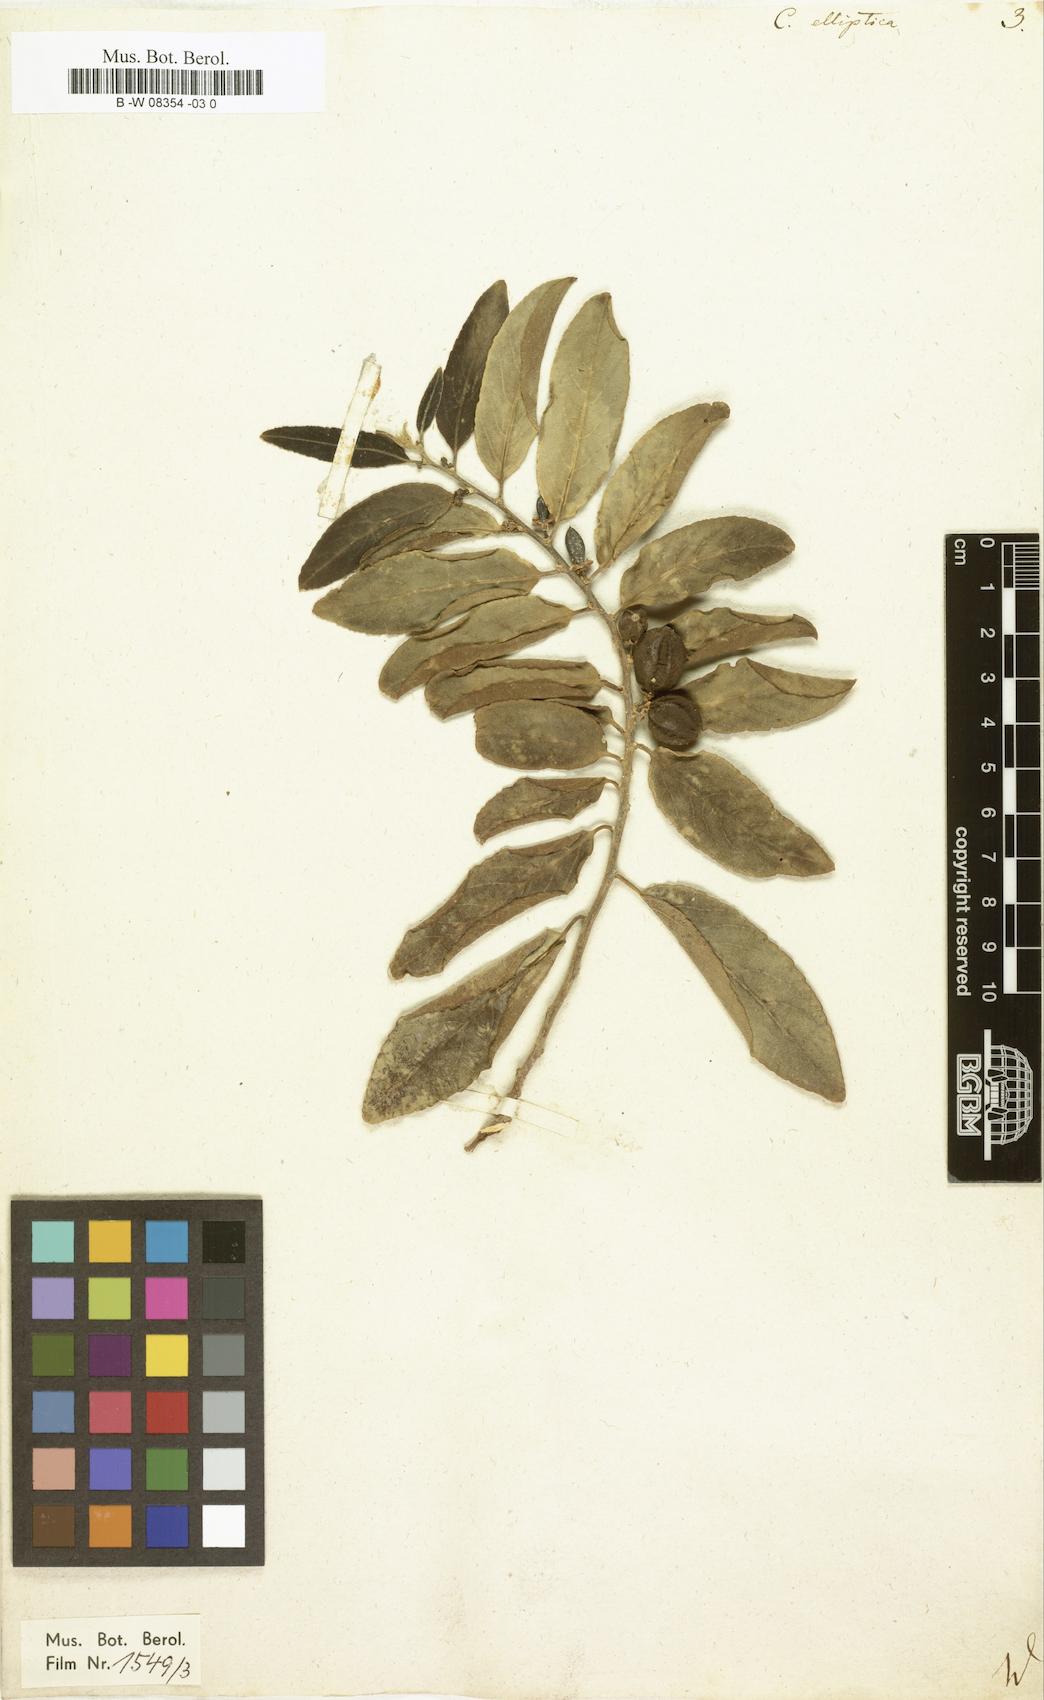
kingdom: Plantae
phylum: Tracheophyta
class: Magnoliopsida
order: Malpighiales
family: Salicaceae
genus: Casearia
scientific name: Casearia elliptica
